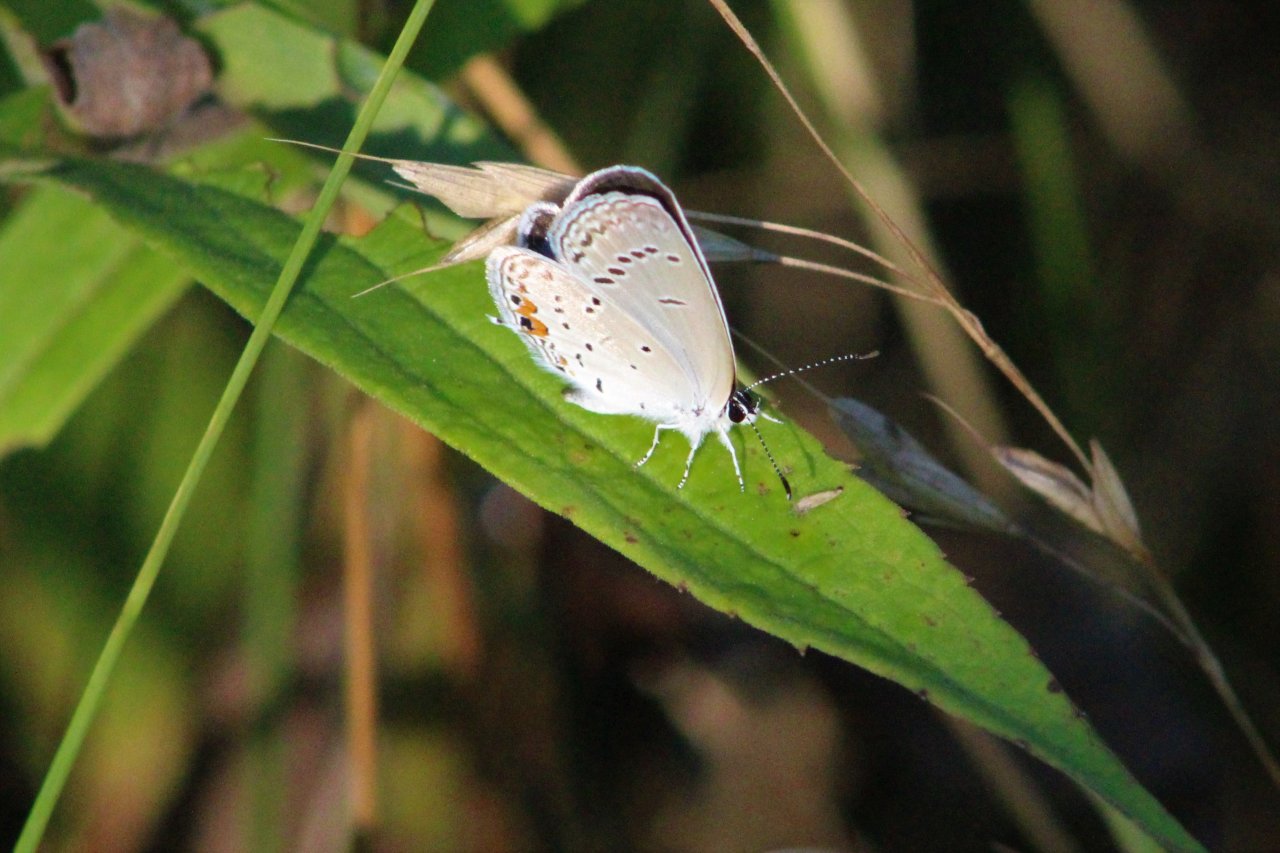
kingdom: Animalia
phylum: Arthropoda
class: Insecta
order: Lepidoptera
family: Lycaenidae
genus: Elkalyce
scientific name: Elkalyce comyntas
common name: Eastern Tailed-Blue
